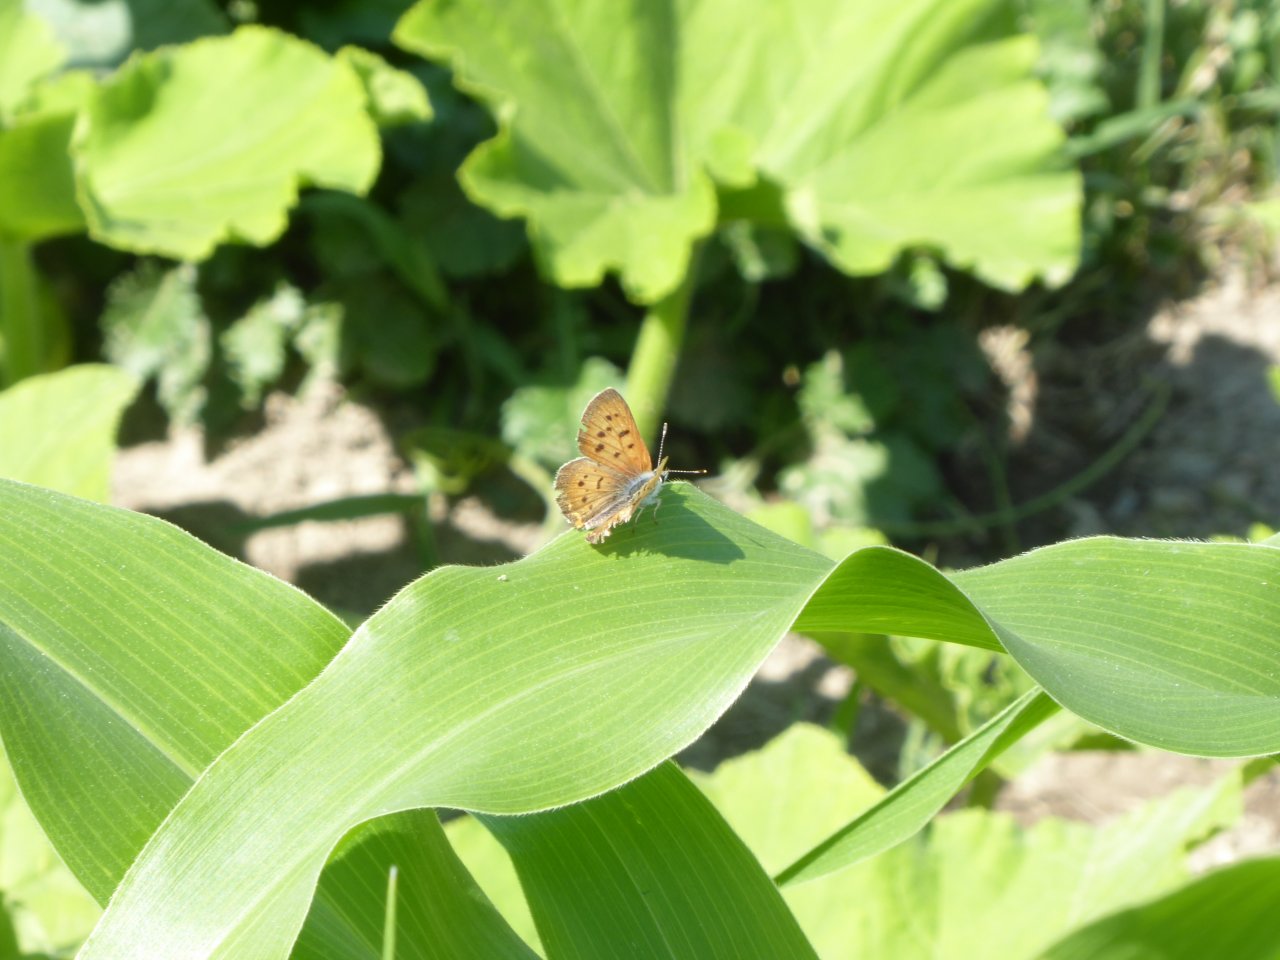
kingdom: Animalia
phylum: Arthropoda
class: Insecta
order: Lepidoptera
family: Sesiidae
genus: Sesia
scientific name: Sesia Lycaena helloides
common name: Purplish Copper
